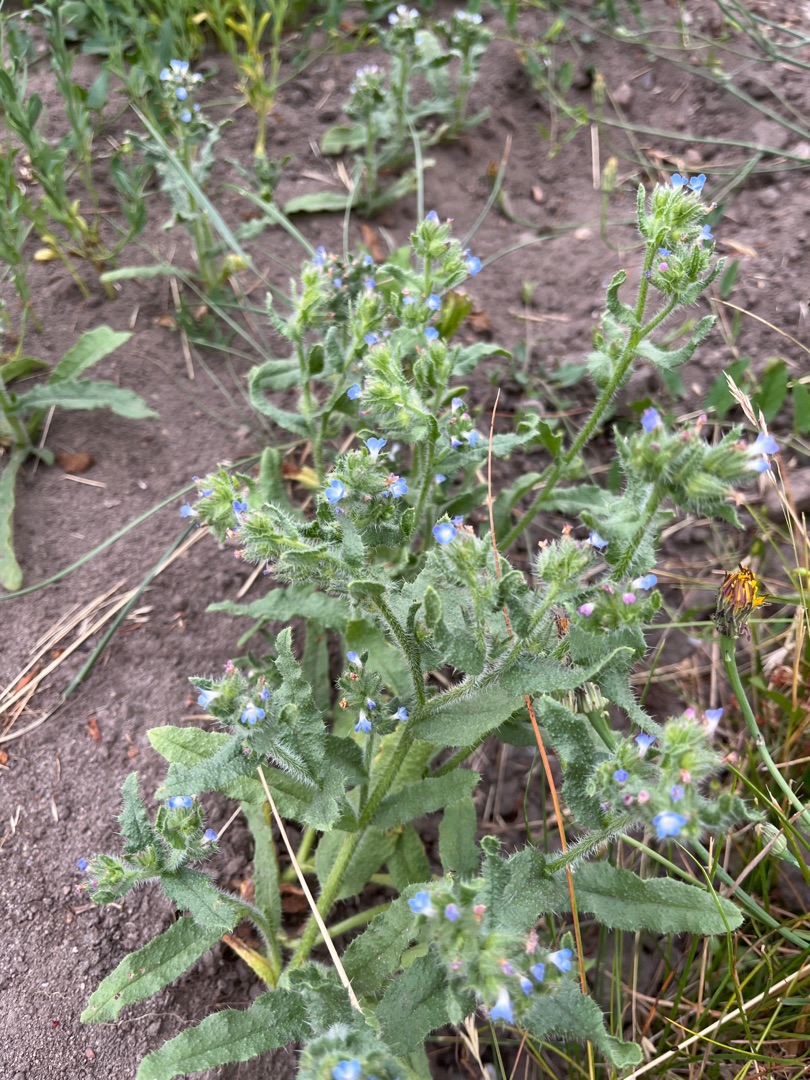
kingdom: Plantae
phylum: Tracheophyta
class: Magnoliopsida
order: Boraginales
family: Boraginaceae
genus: Lycopsis
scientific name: Lycopsis arvensis
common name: Krumhals
